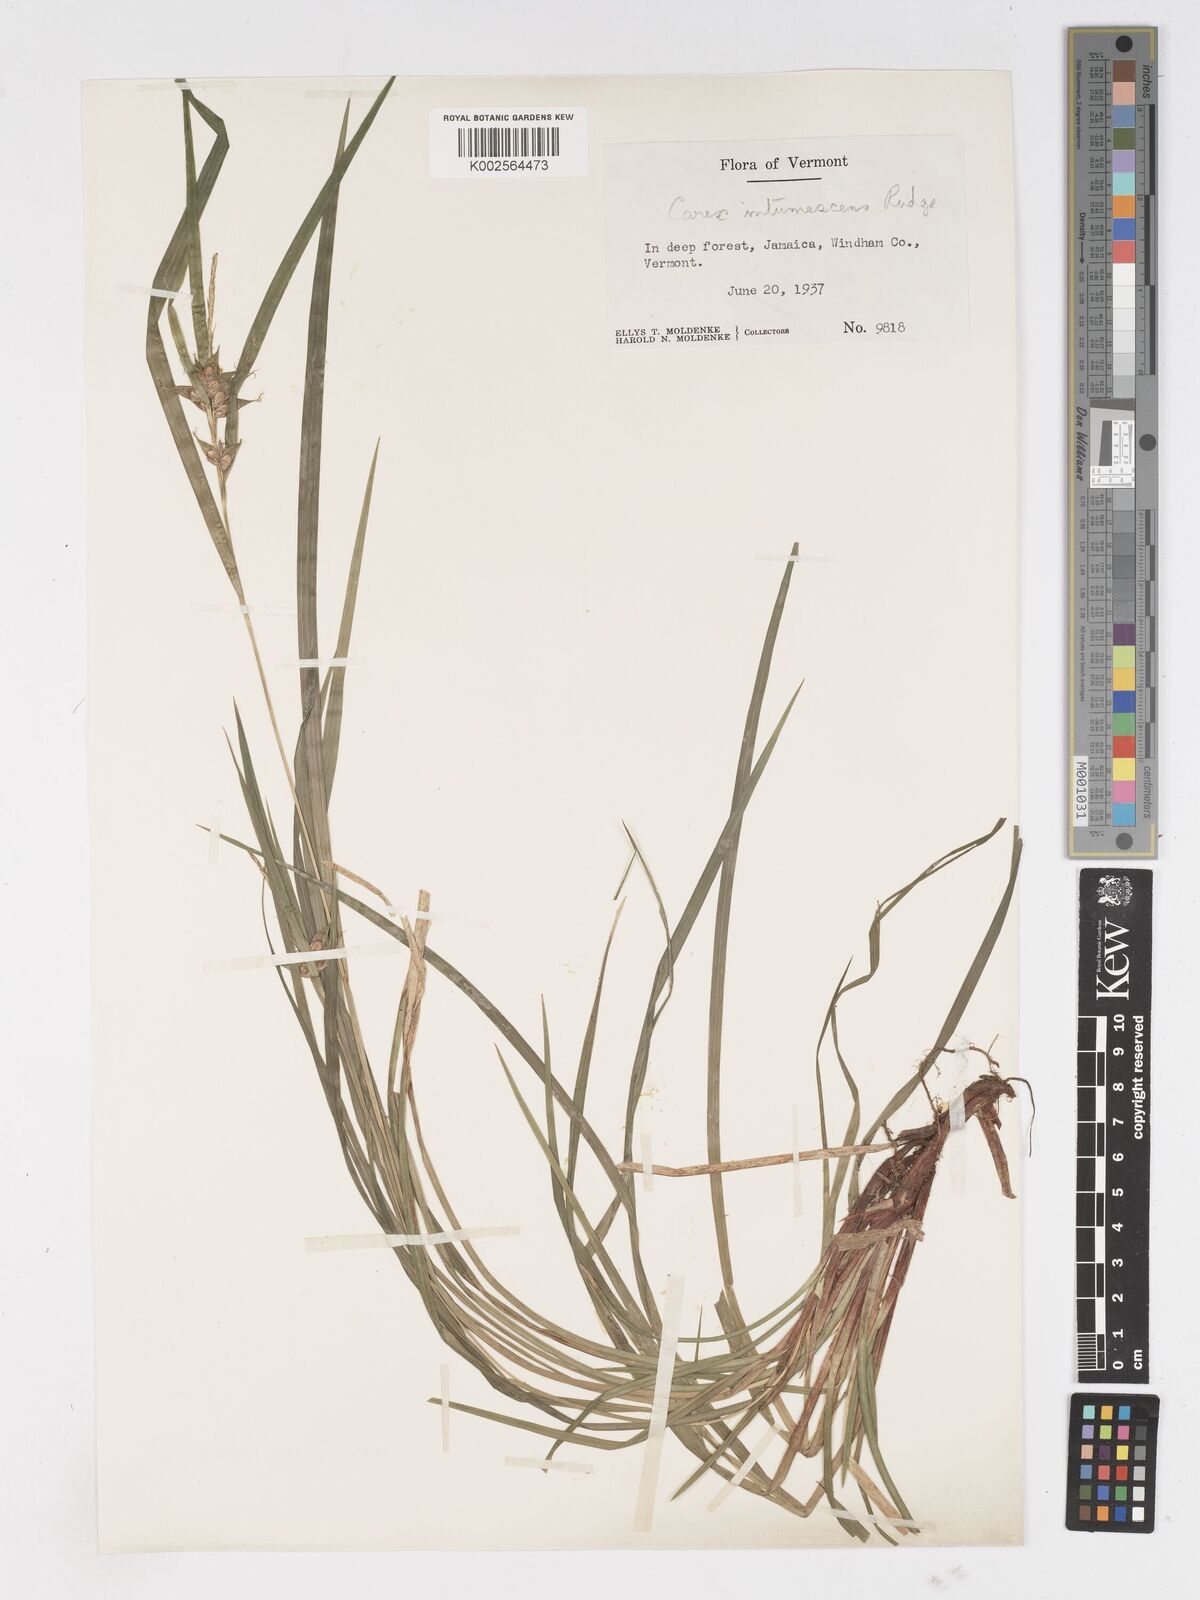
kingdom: Plantae
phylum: Tracheophyta
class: Liliopsida
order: Poales
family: Cyperaceae
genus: Carex
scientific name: Carex intumescens
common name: Greater bladder sedge
